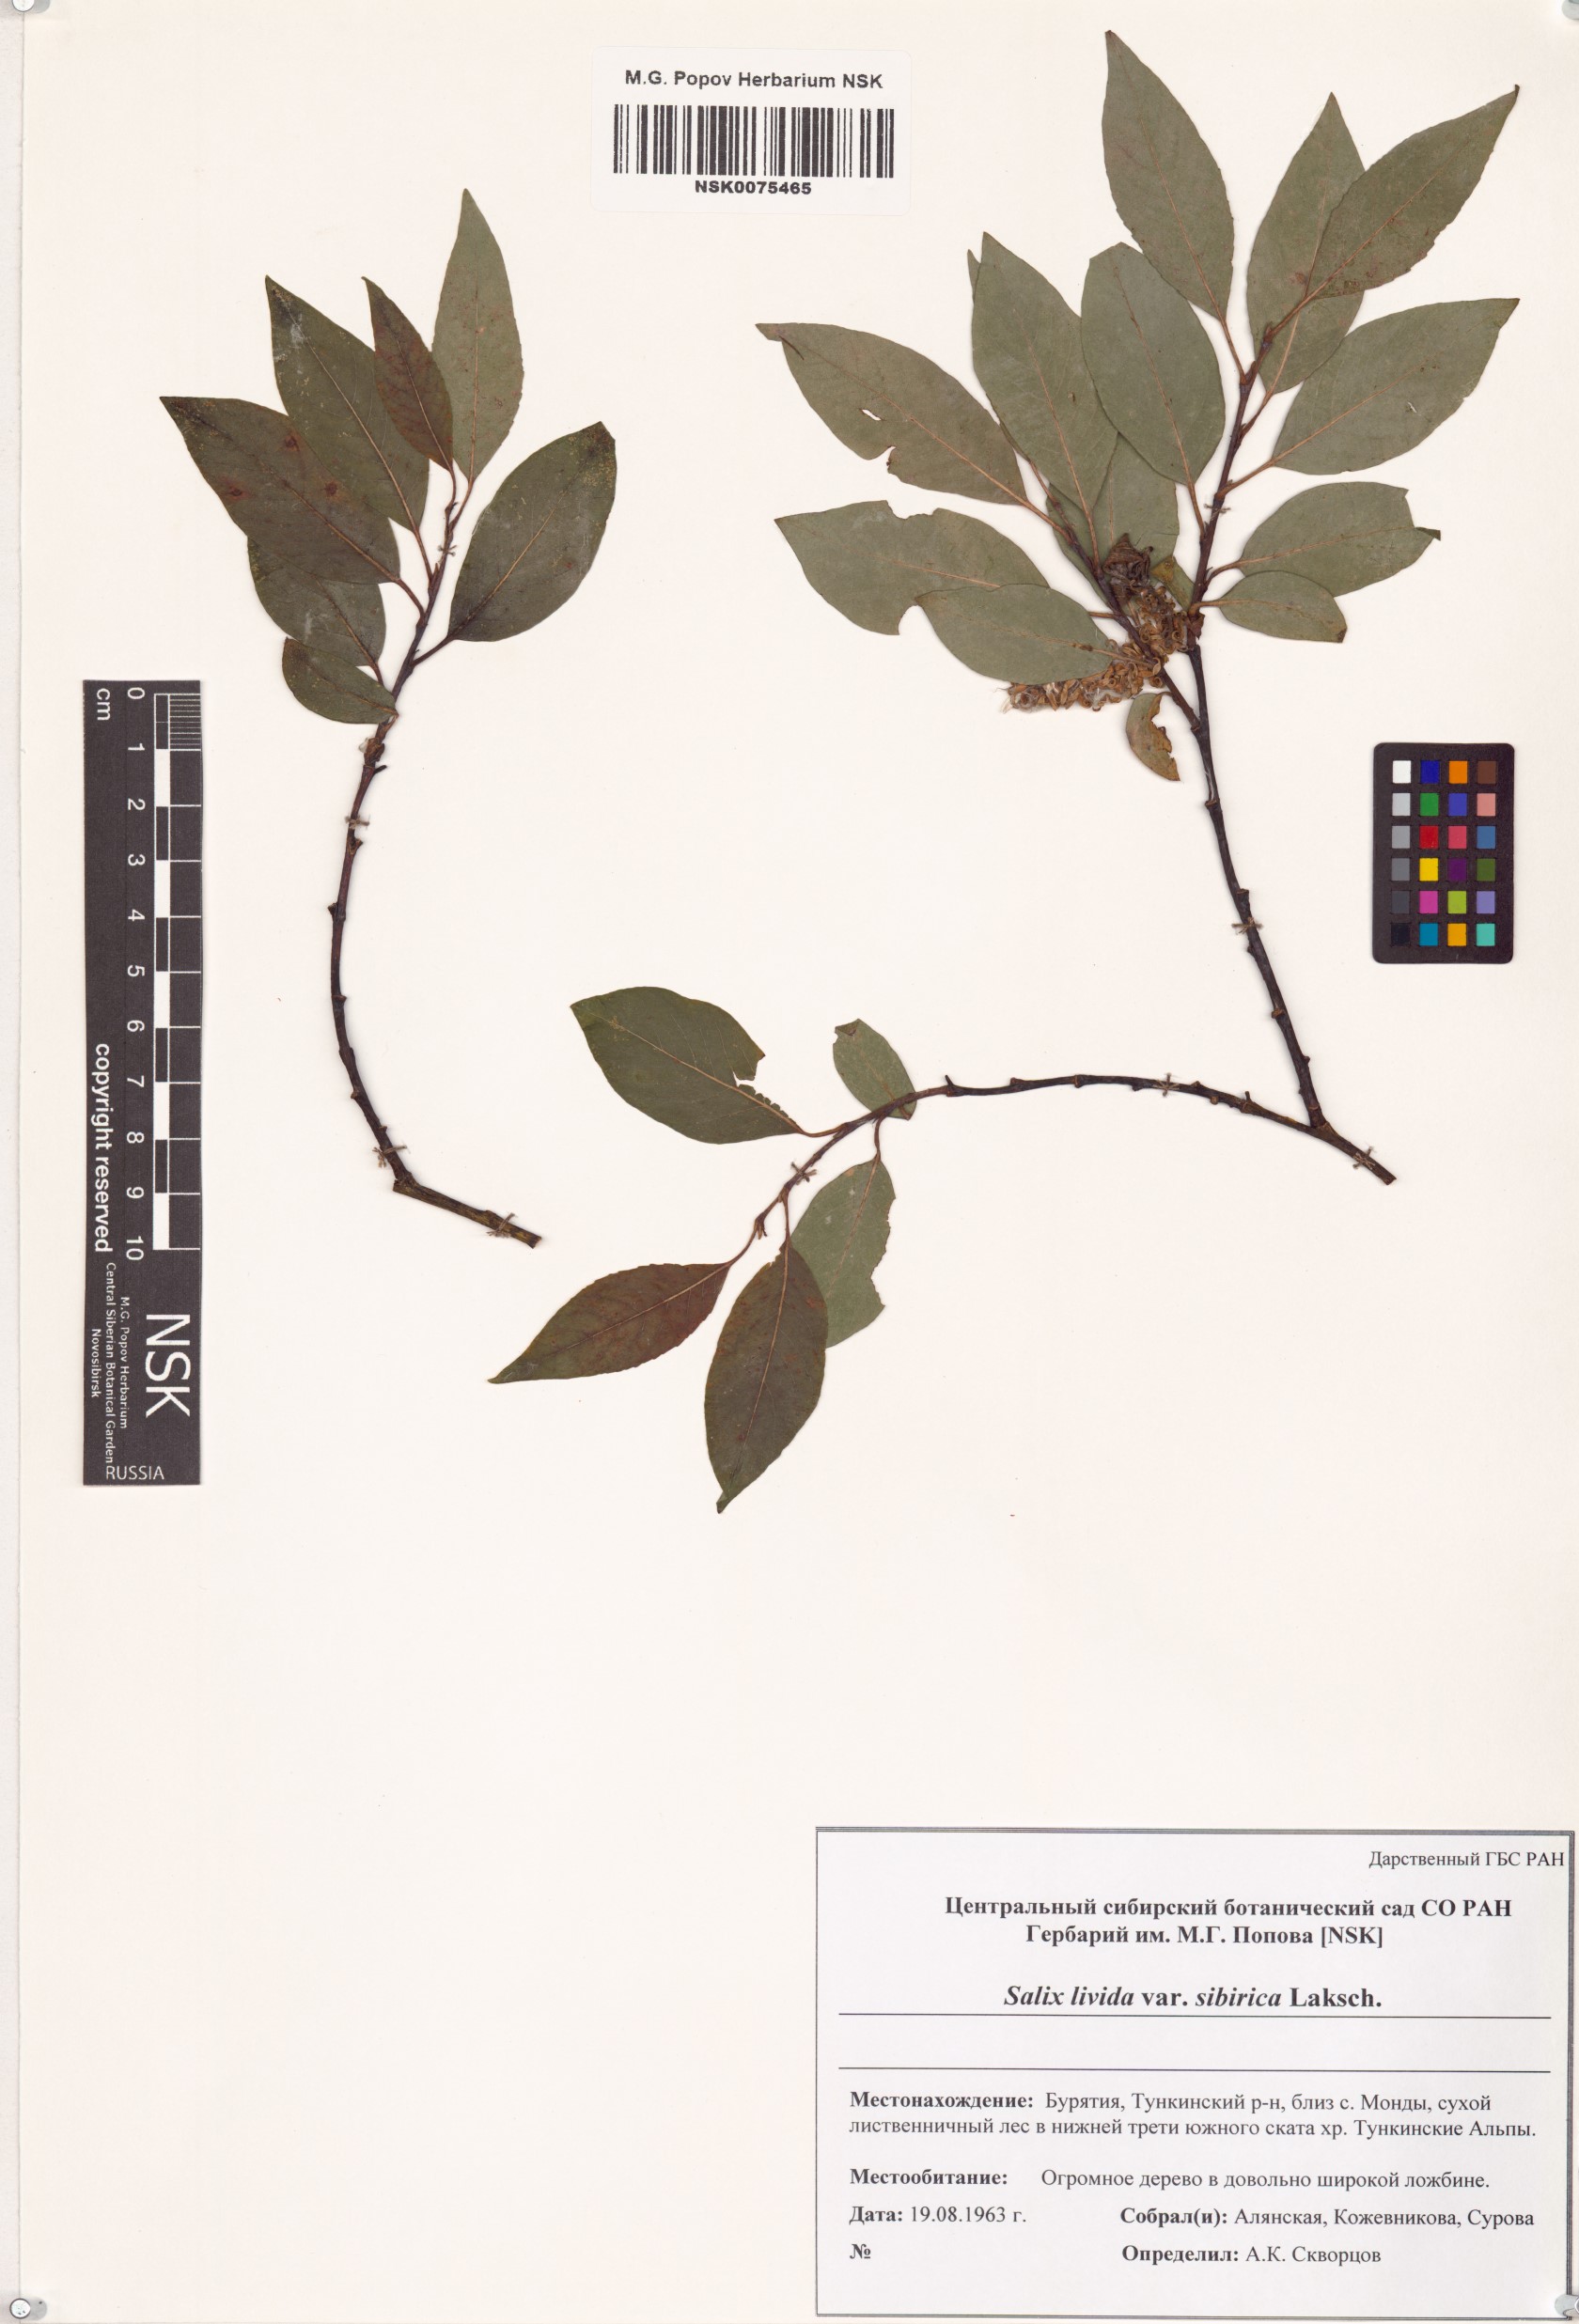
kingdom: Plantae
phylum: Tracheophyta
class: Magnoliopsida
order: Malpighiales
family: Salicaceae
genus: Salix
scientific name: Salix
